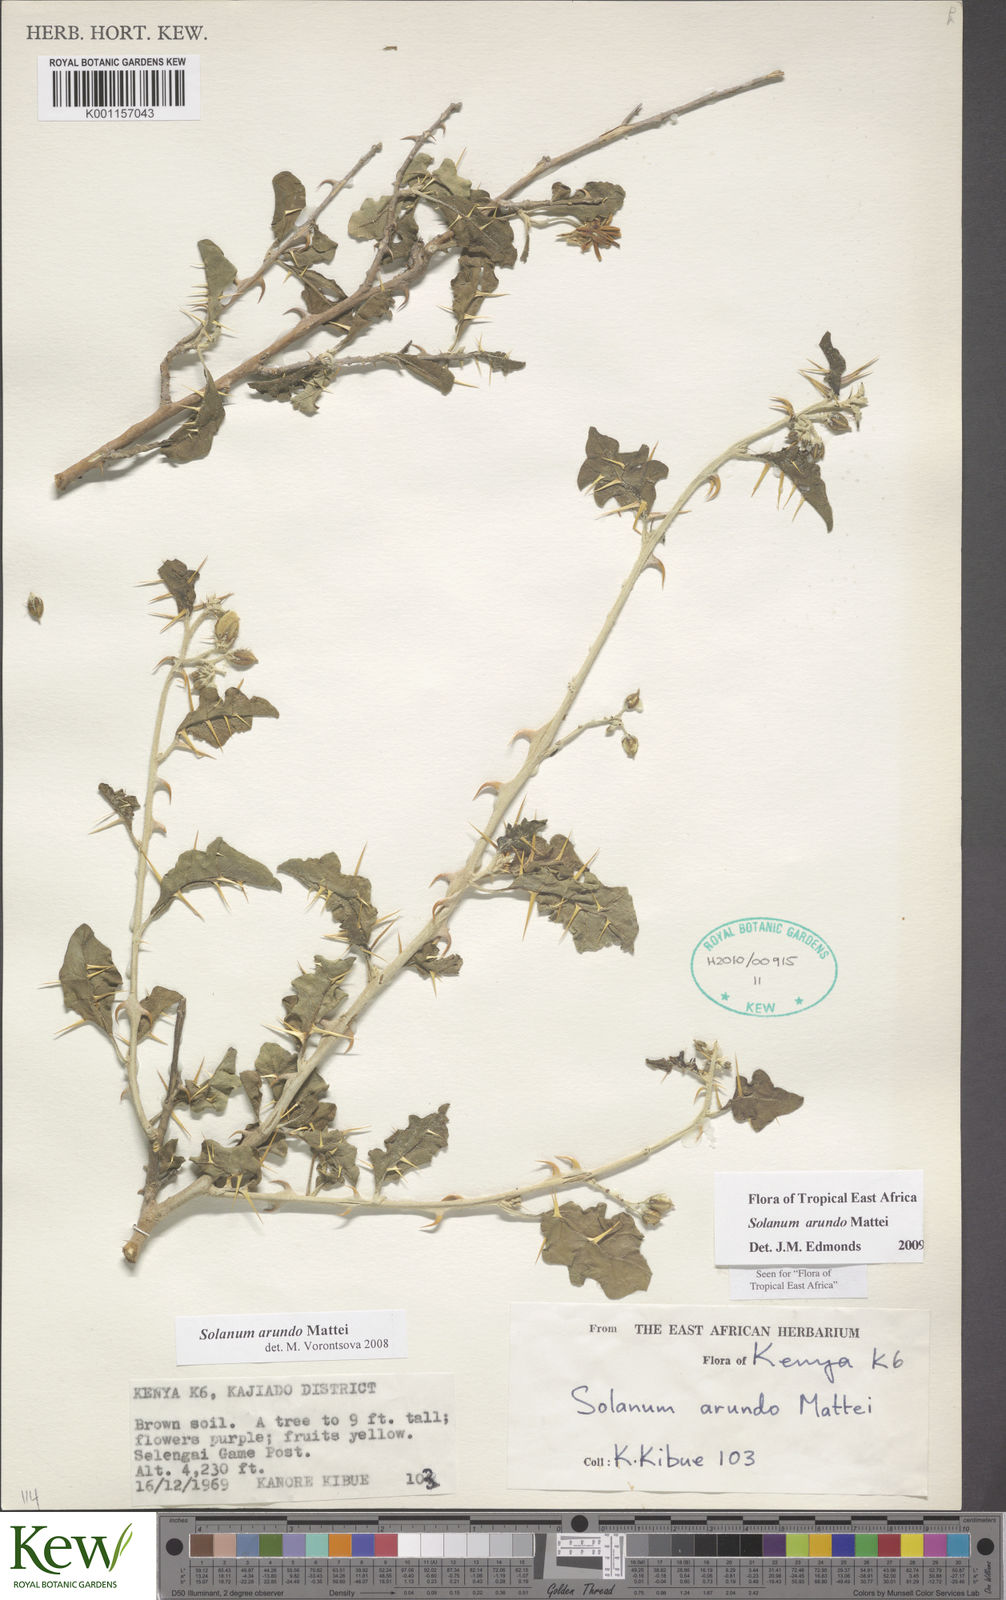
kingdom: Plantae
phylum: Tracheophyta
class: Magnoliopsida
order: Solanales
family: Solanaceae
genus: Solanum
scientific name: Solanum arundo
